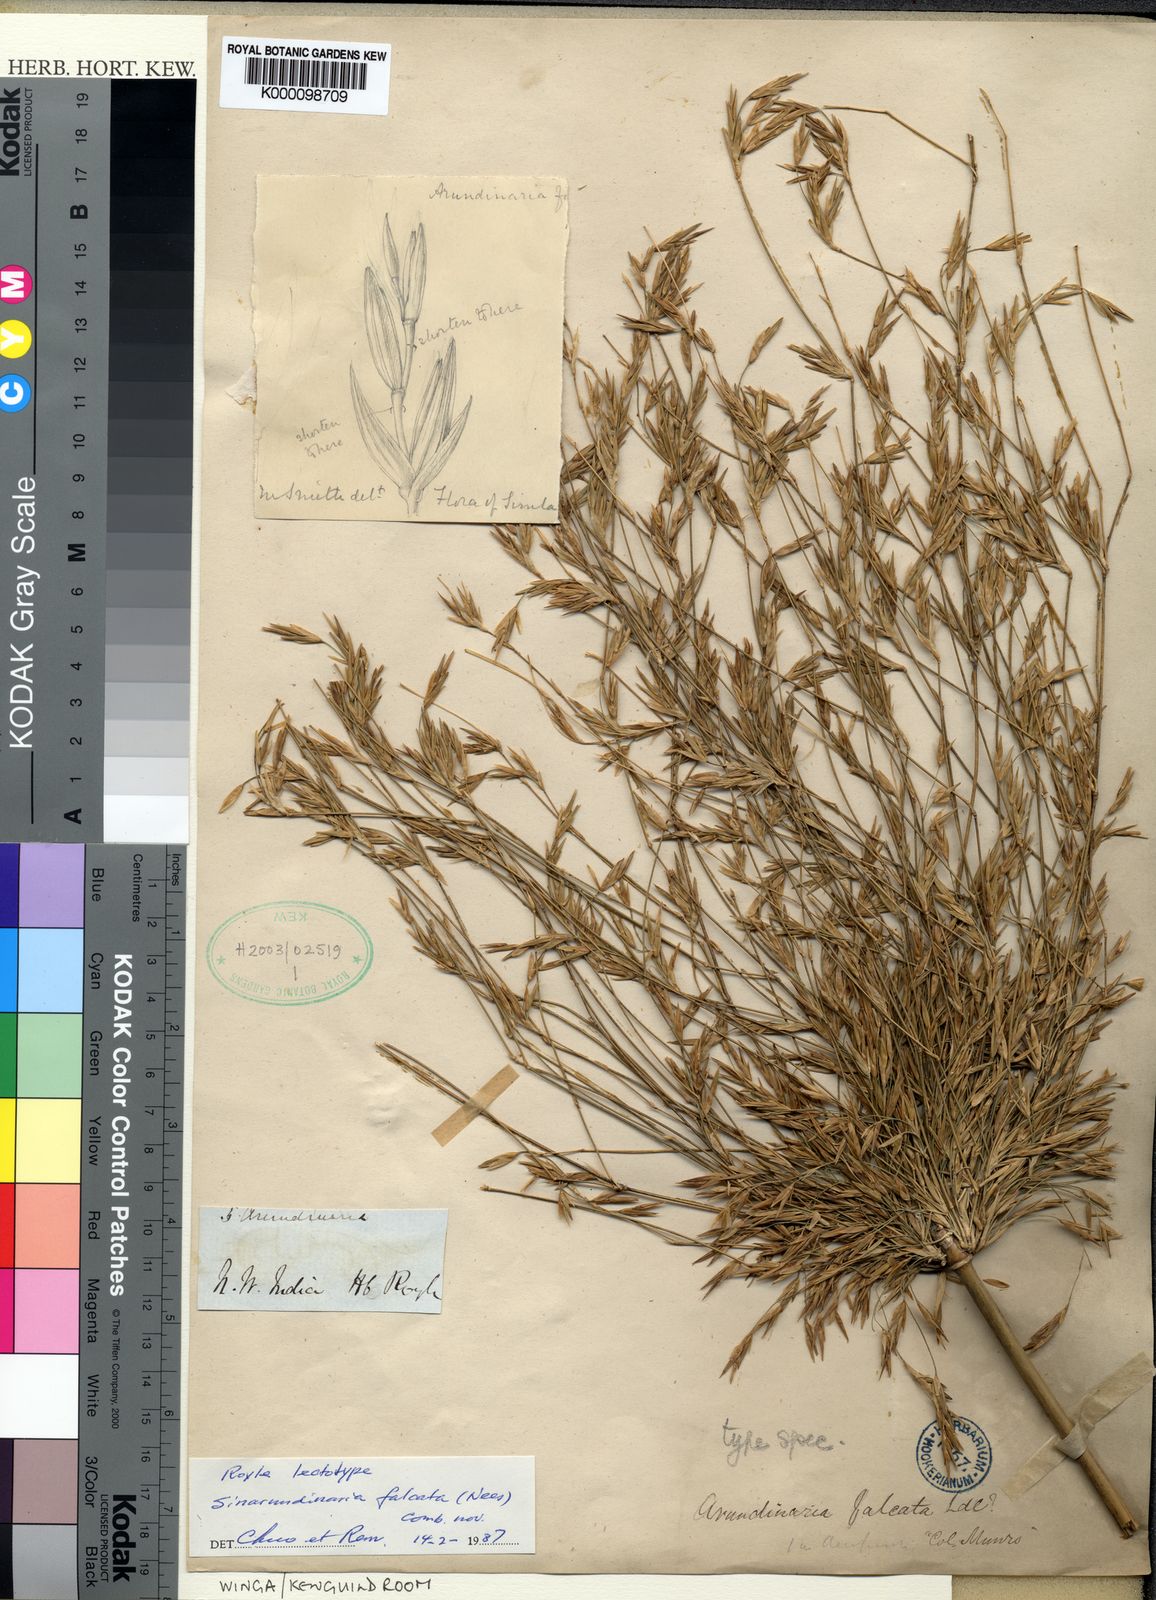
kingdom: Plantae
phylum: Tracheophyta
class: Liliopsida
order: Poales
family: Poaceae
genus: Fargesia
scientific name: Fargesia
